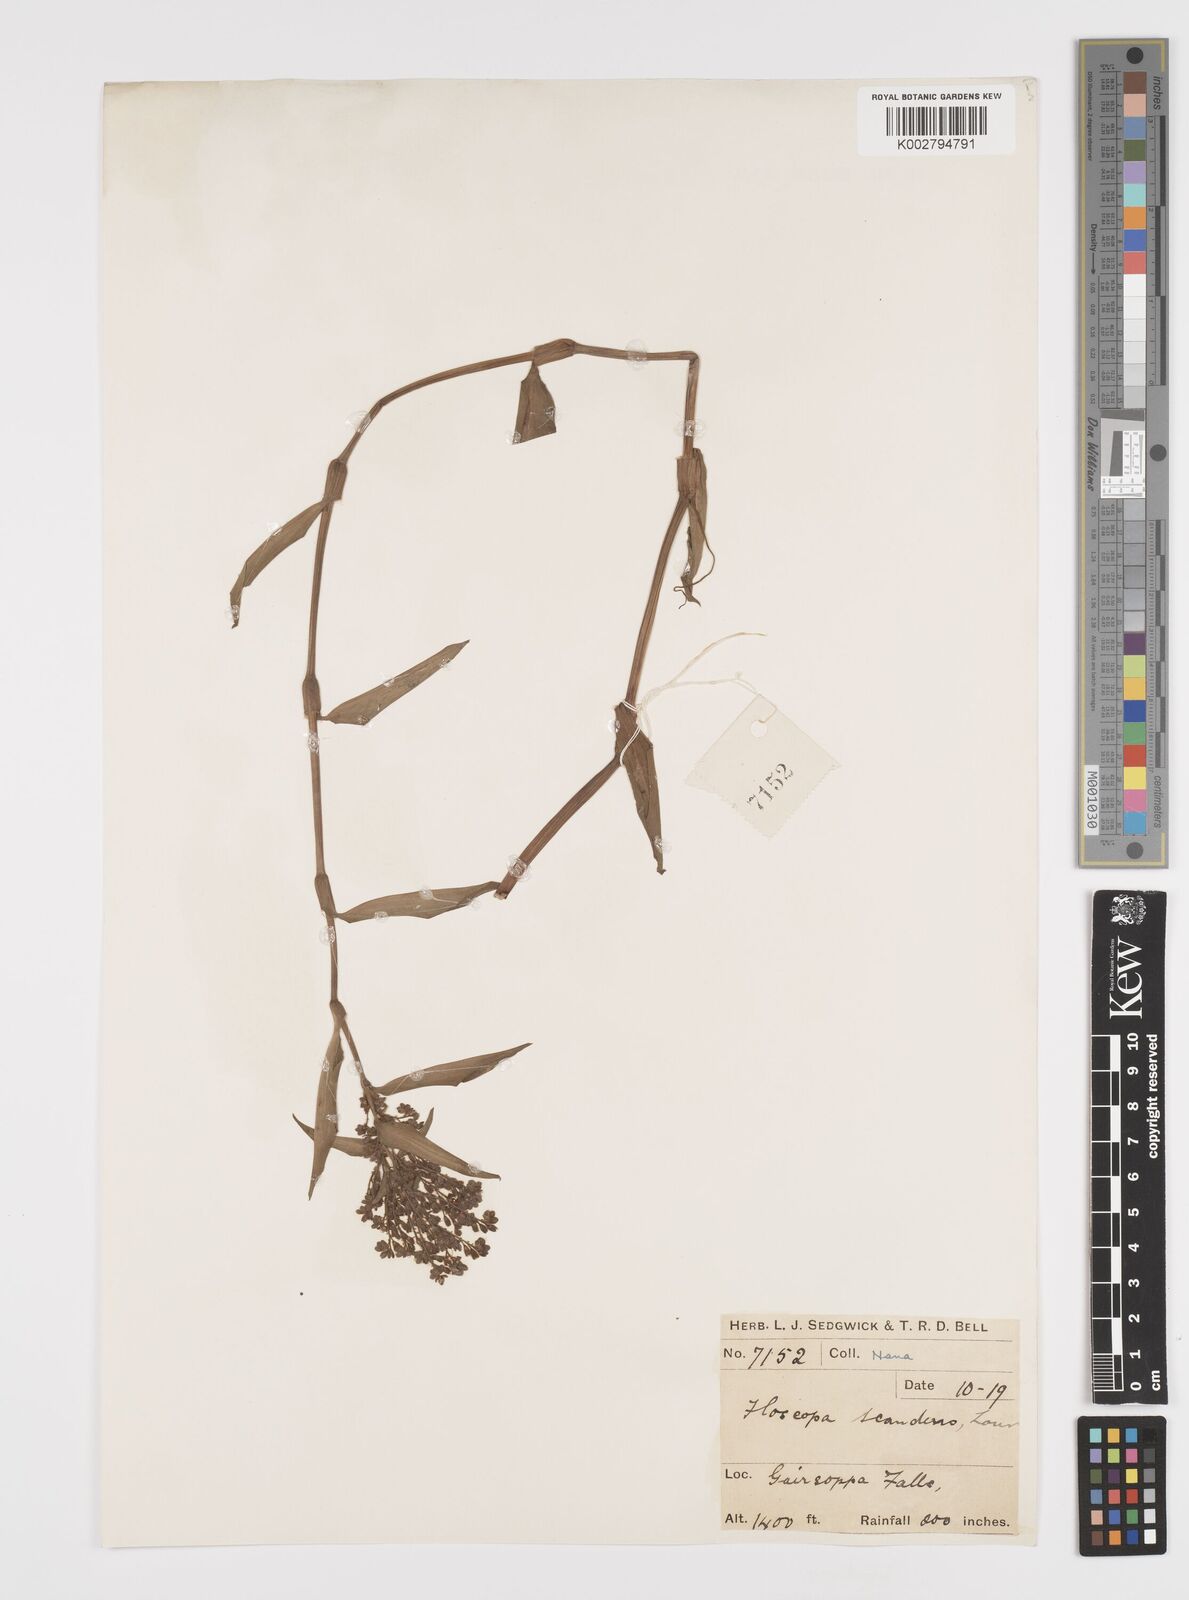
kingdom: Plantae
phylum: Tracheophyta
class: Liliopsida
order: Commelinales
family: Commelinaceae
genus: Floscopa
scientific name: Floscopa scandens
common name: Climbing flower cup
